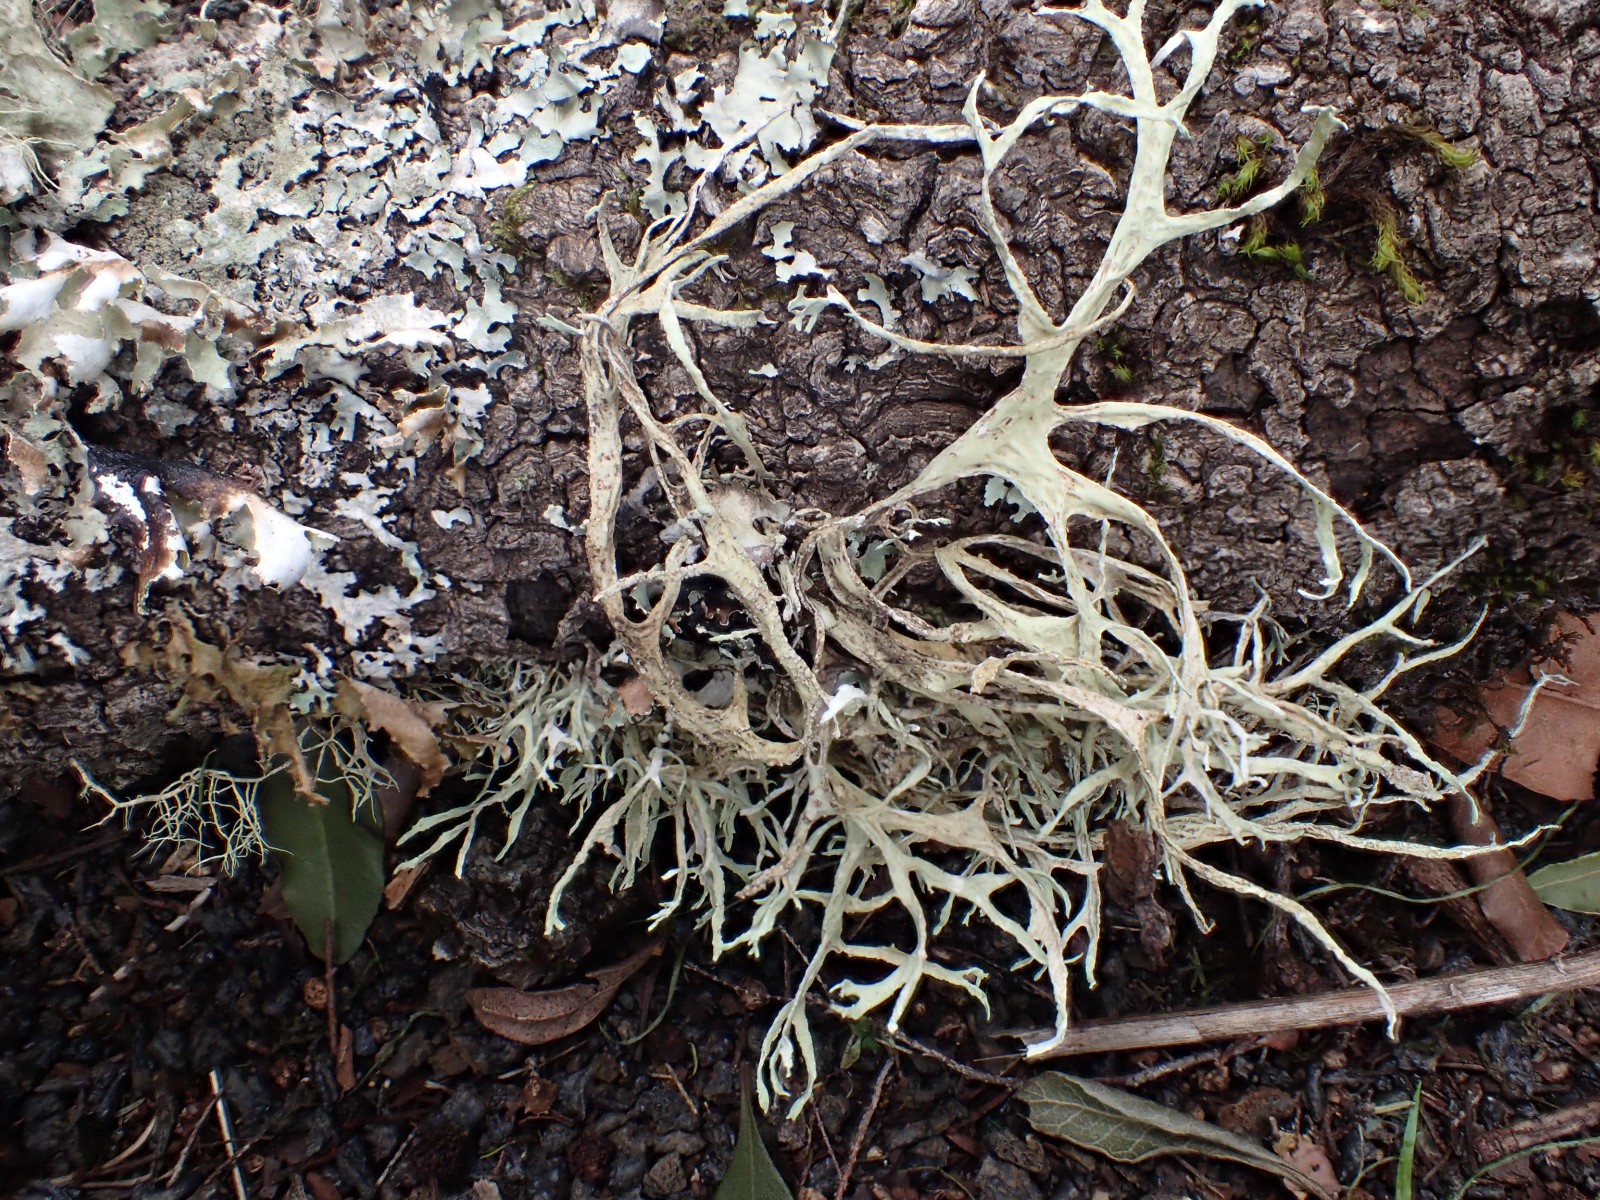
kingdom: Fungi
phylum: Ascomycota
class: Lecanoromycetes
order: Lecanorales
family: Ramalinaceae
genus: Ramalina
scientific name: Ramalina farinacea
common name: melet grenlav
